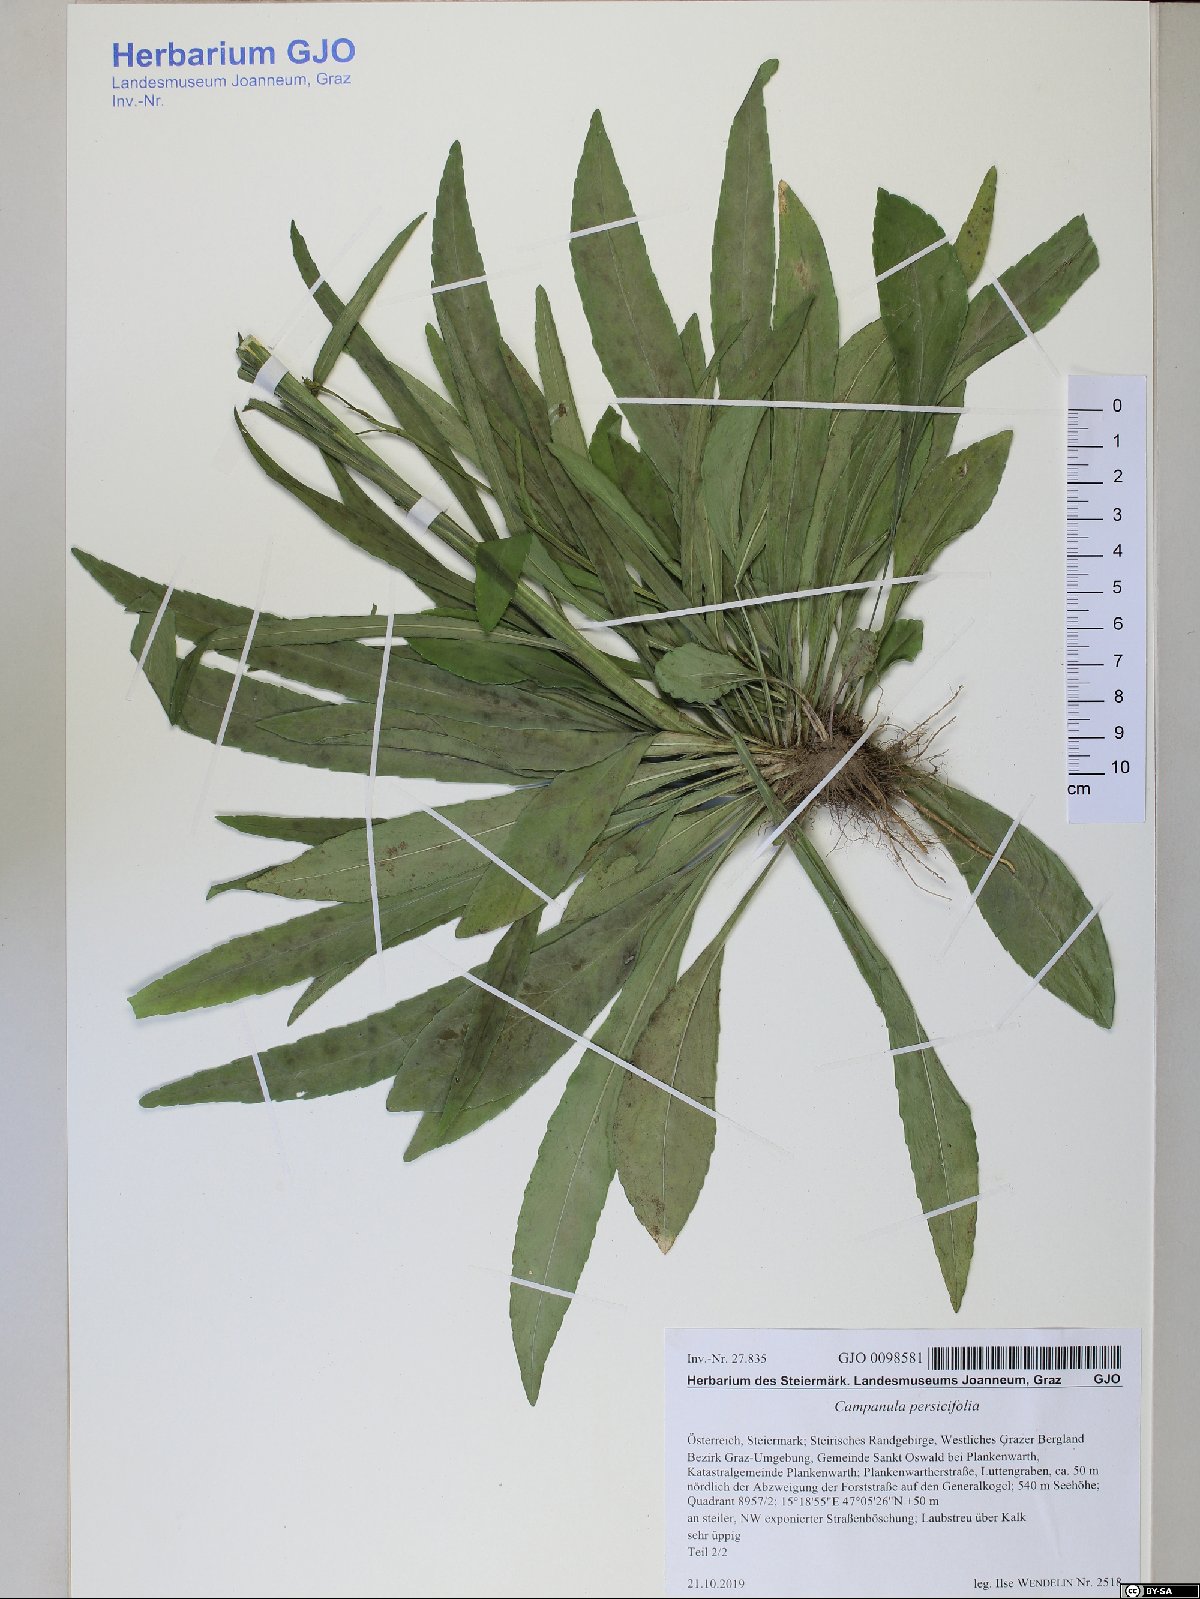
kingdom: Plantae
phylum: Tracheophyta
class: Magnoliopsida
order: Asterales
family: Campanulaceae
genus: Campanula
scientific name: Campanula persicifolia
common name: Peach-leaved bellflower
